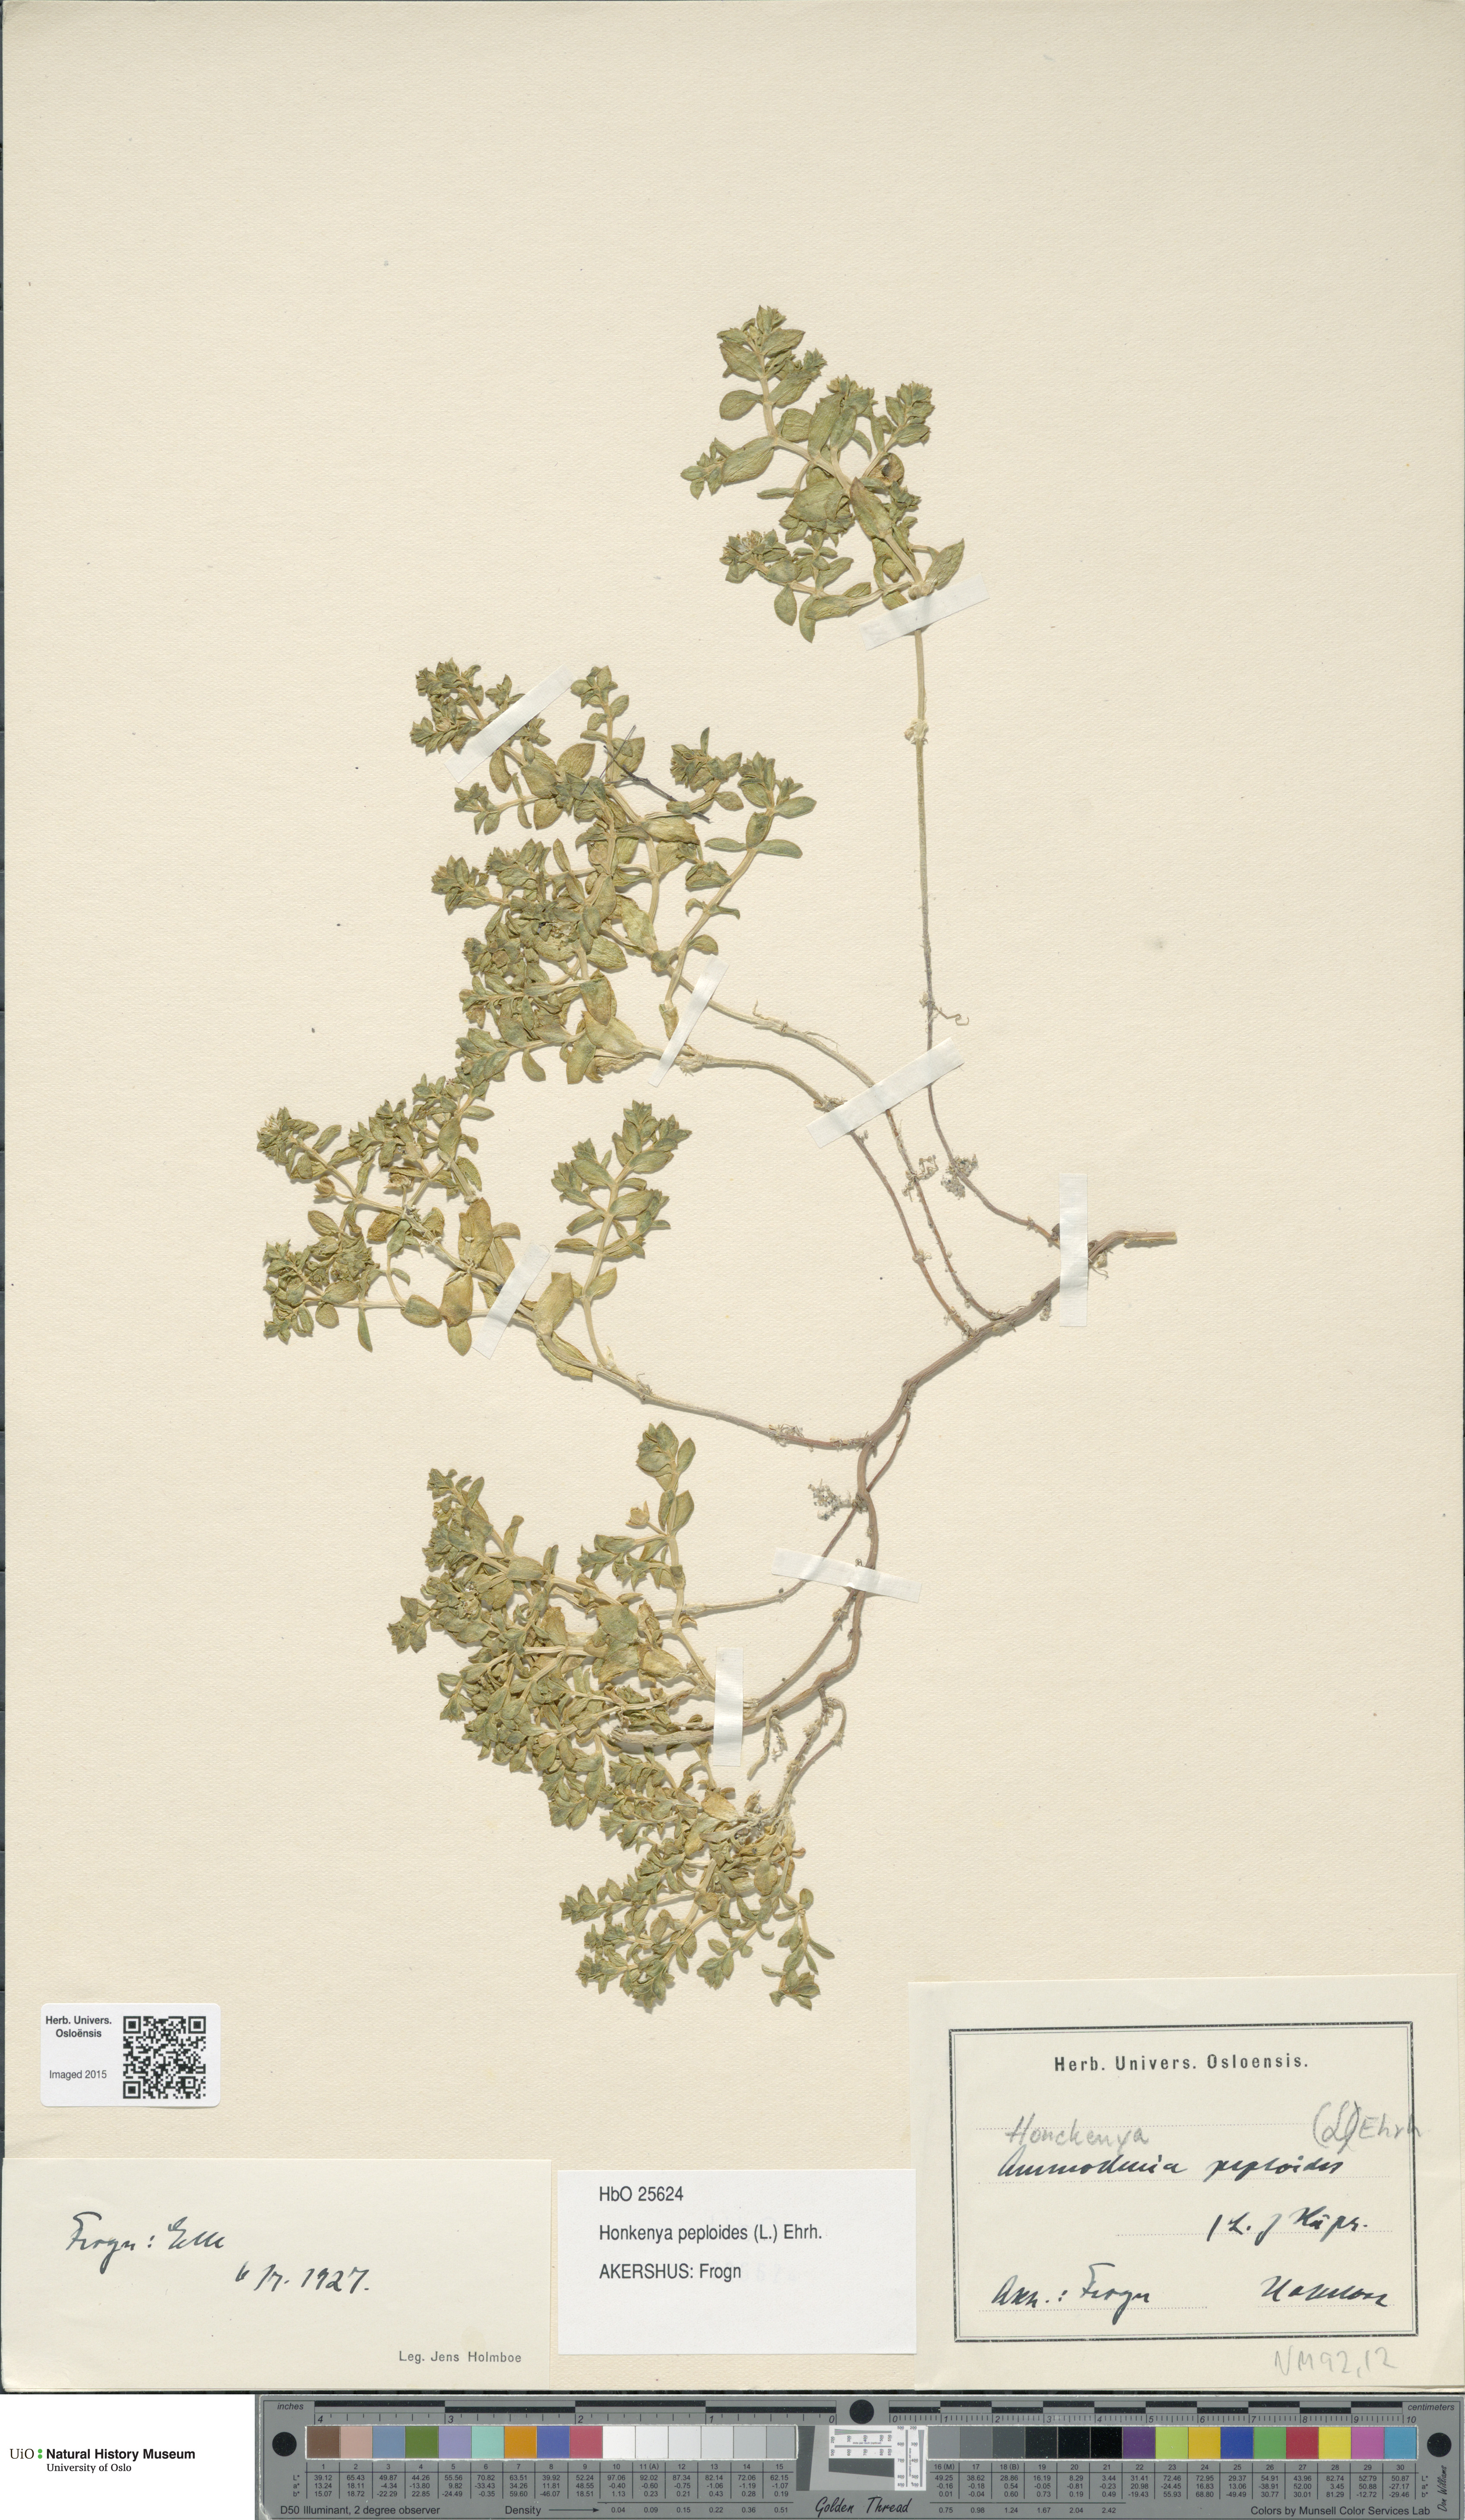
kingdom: Plantae
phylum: Tracheophyta
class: Magnoliopsida
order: Caryophyllales
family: Caryophyllaceae
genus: Honckenya
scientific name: Honckenya peploides
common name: Sea sandwort
